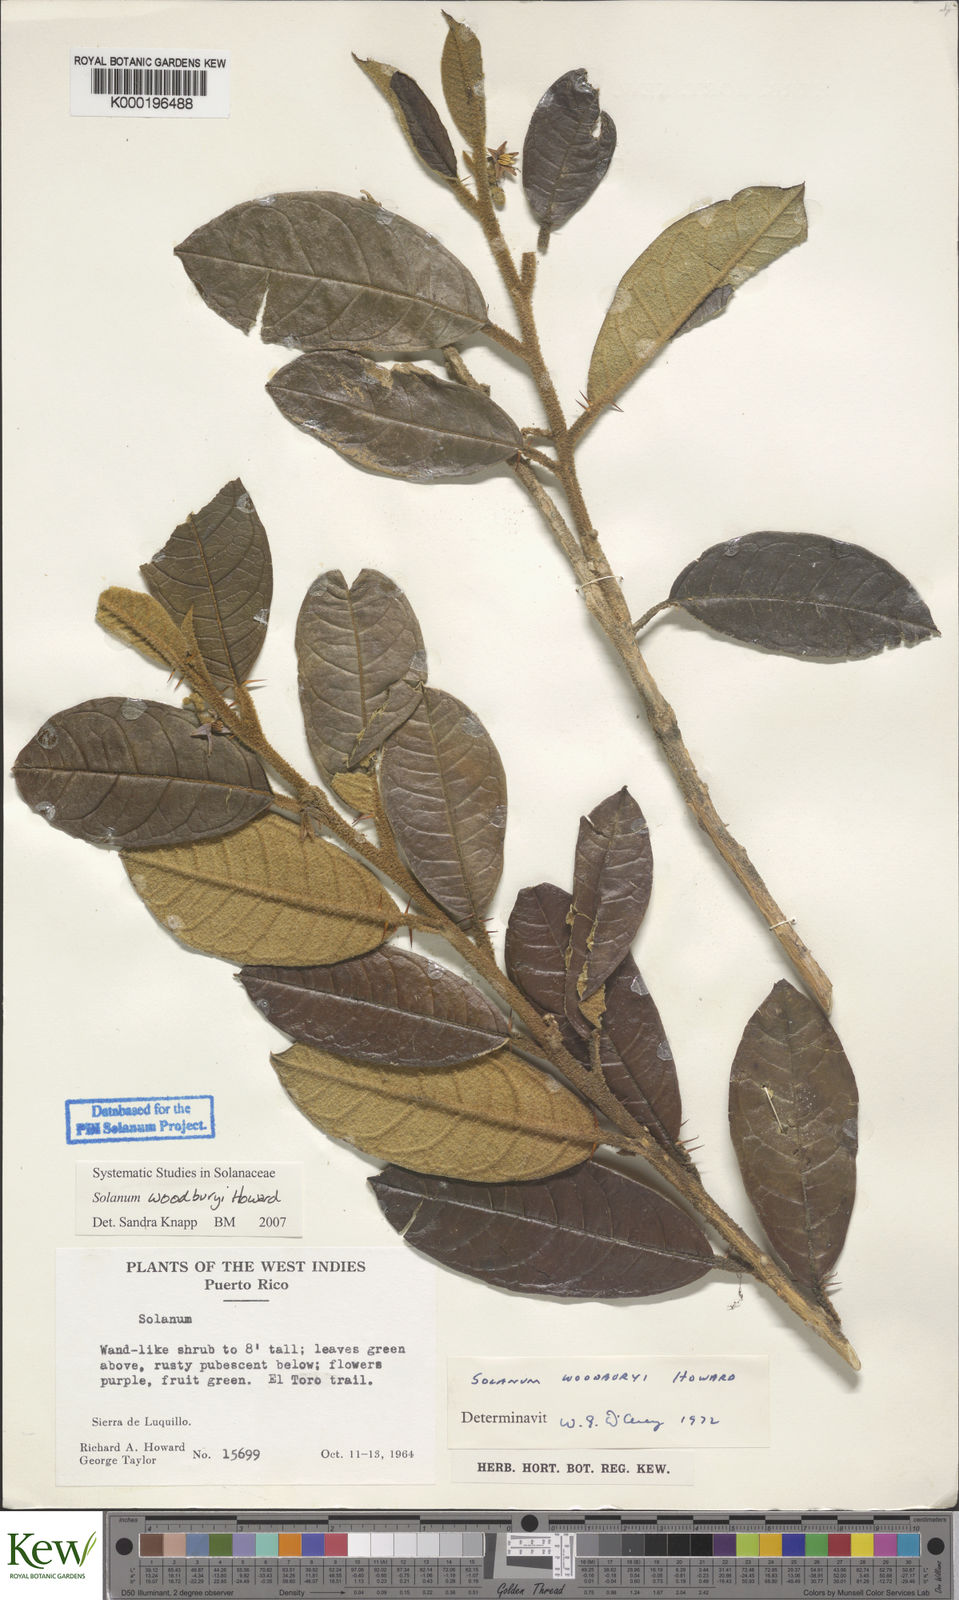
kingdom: Plantae
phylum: Tracheophyta
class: Magnoliopsida
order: Solanales
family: Solanaceae
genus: Solanum
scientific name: Solanum woodburyi
